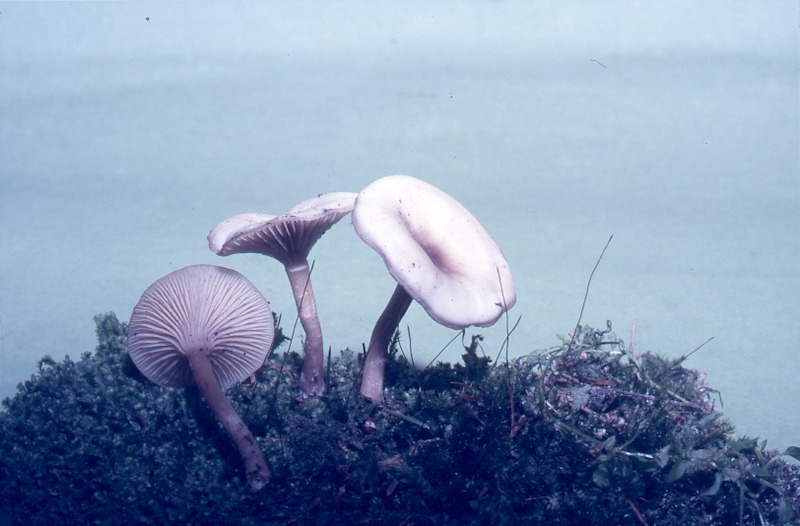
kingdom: Fungi
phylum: Basidiomycota
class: Agaricomycetes
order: Agaricales
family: Tricholomataceae
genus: Clitocybe
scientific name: Clitocybe fragrans
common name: Fragrant funnel
